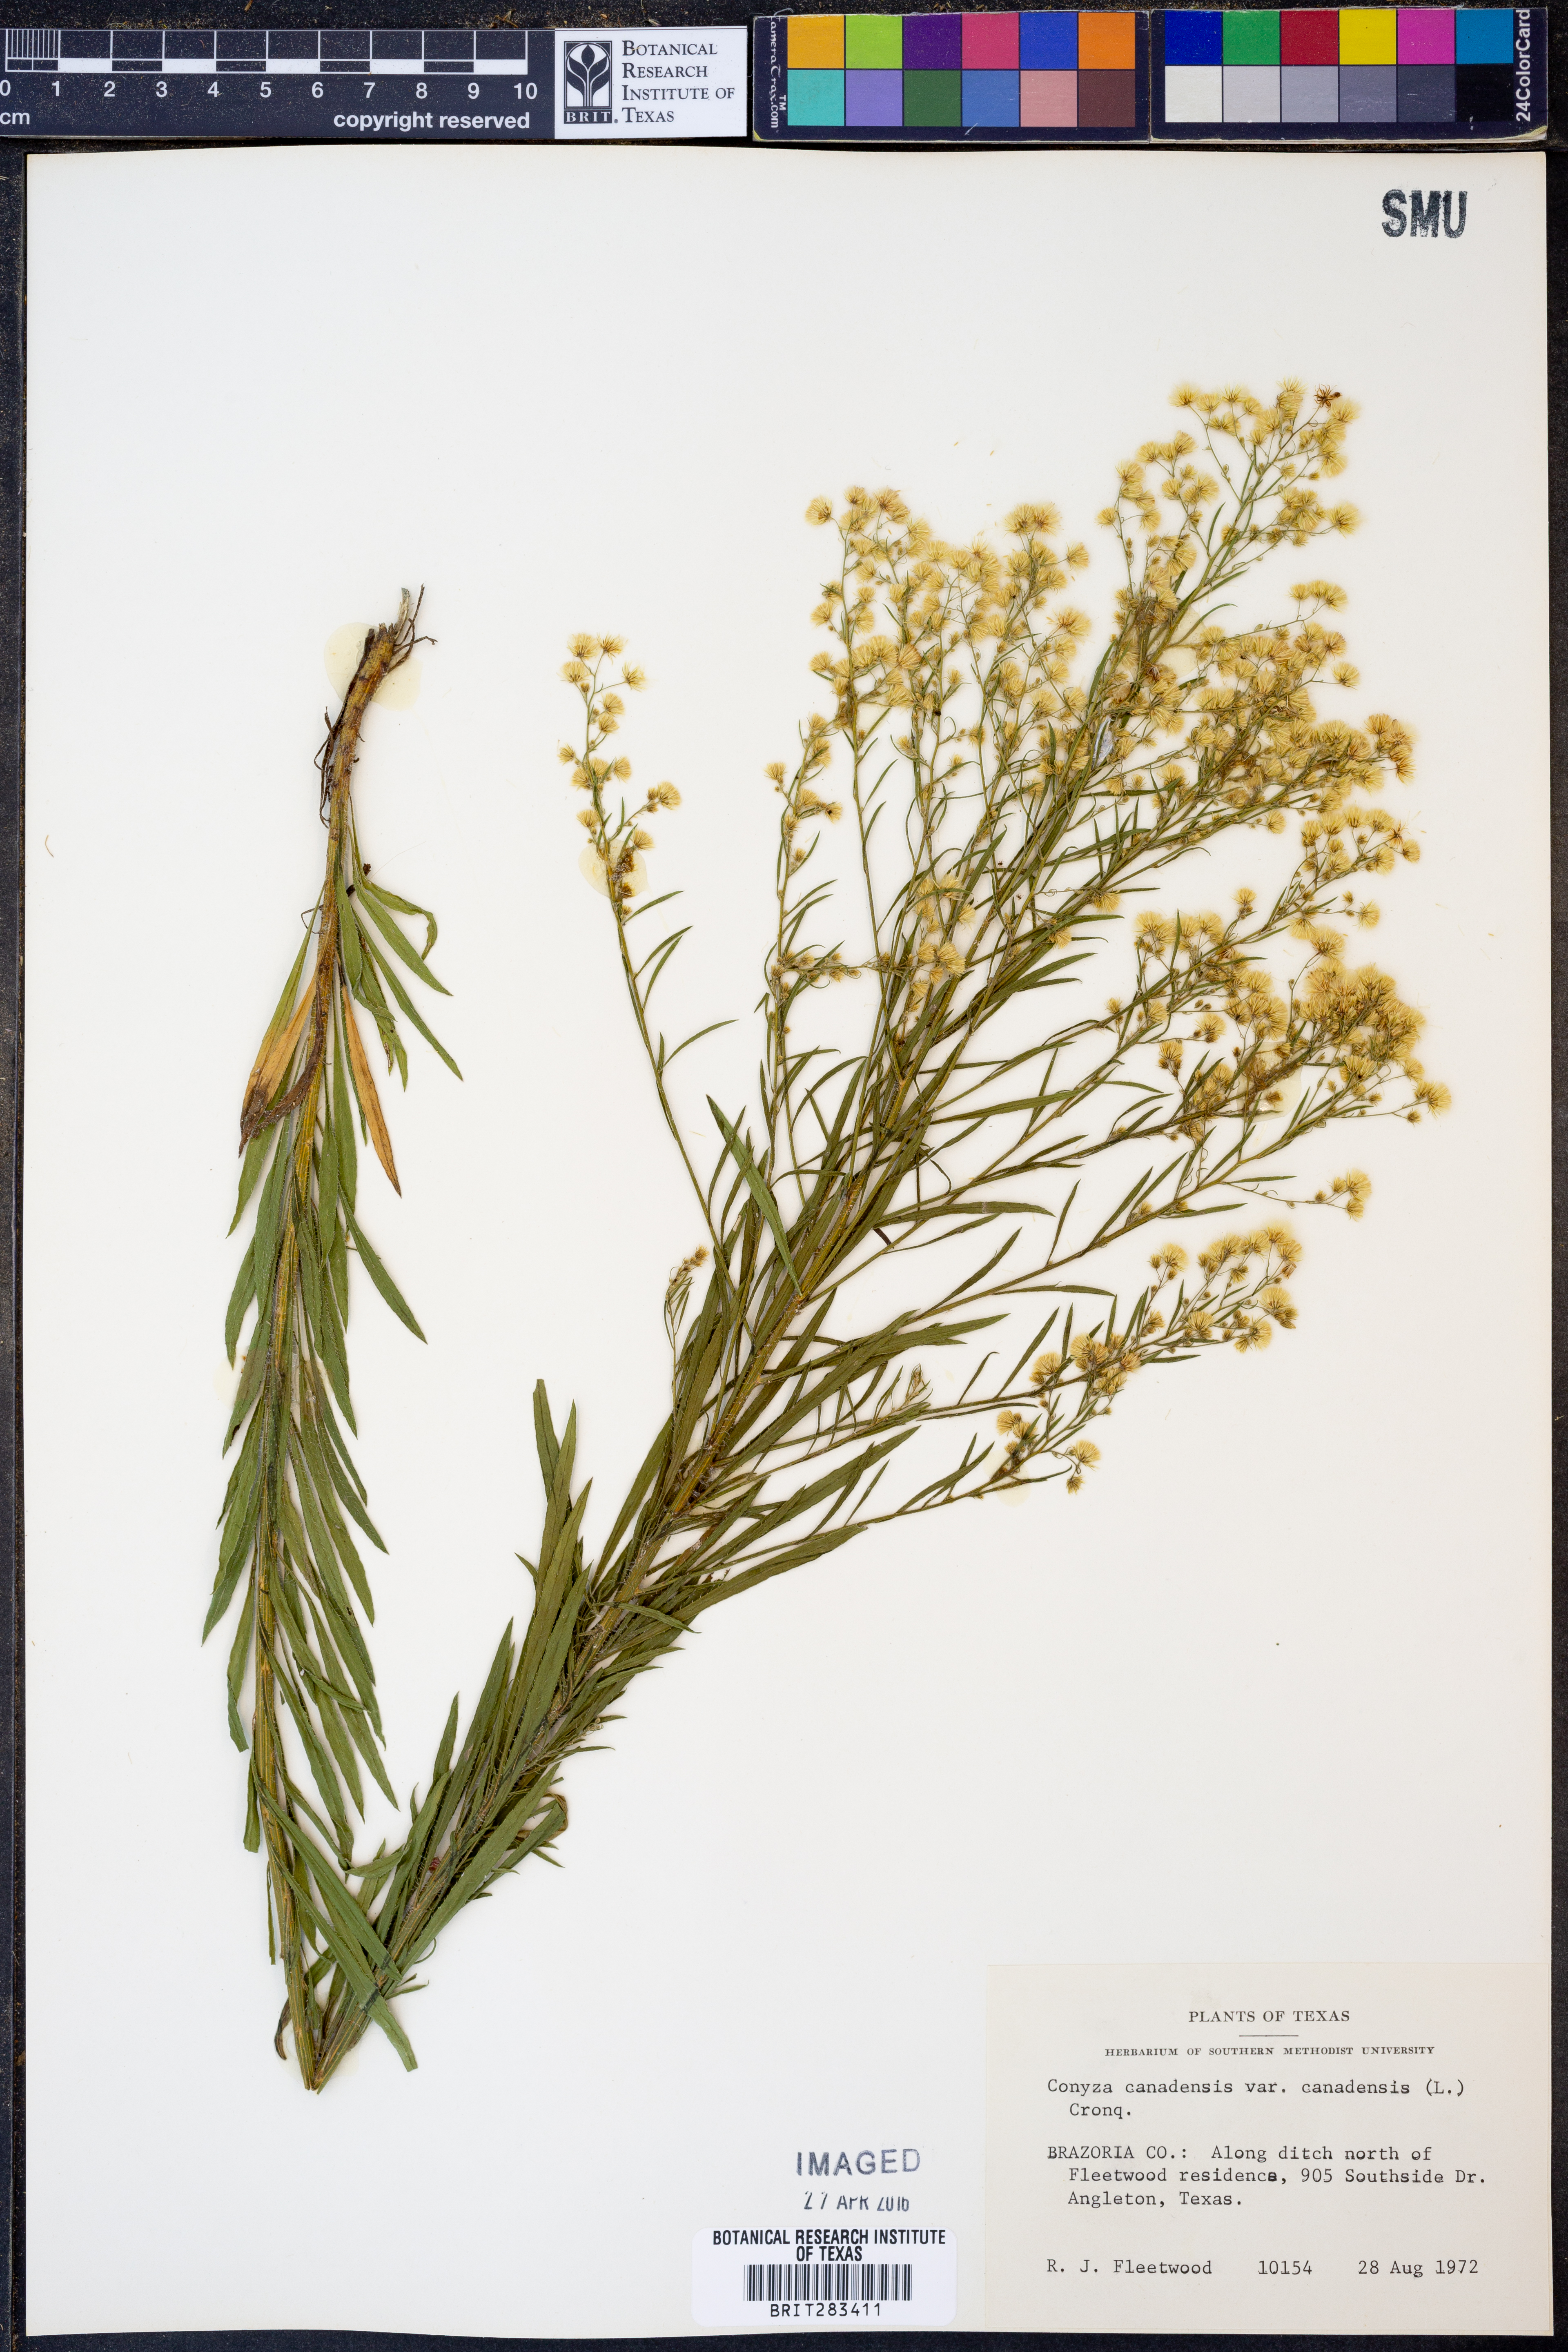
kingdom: Plantae
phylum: Tracheophyta
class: Magnoliopsida
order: Asterales
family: Asteraceae
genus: Erigeron
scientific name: Erigeron canadensis
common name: Canadian fleabane
